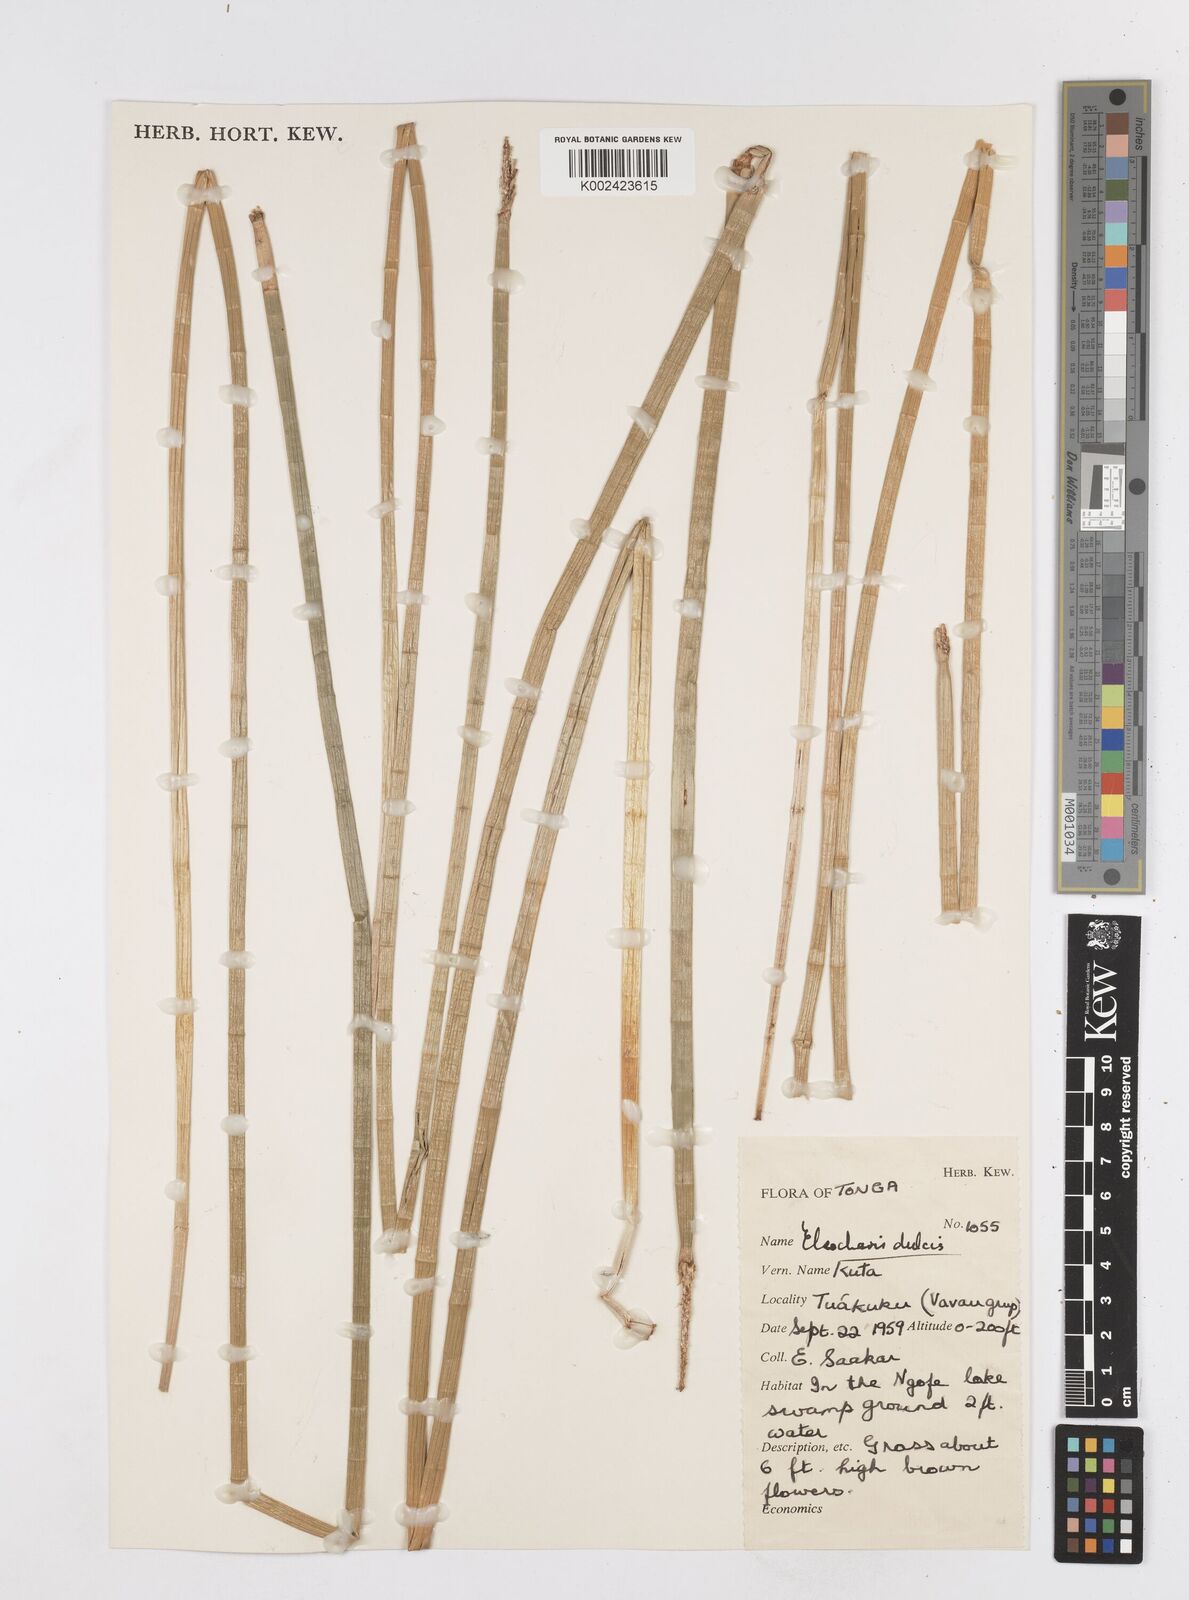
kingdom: Plantae
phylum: Tracheophyta
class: Liliopsida
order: Poales
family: Cyperaceae
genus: Eleocharis
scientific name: Eleocharis dulcis
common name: Chinese water chestnut
